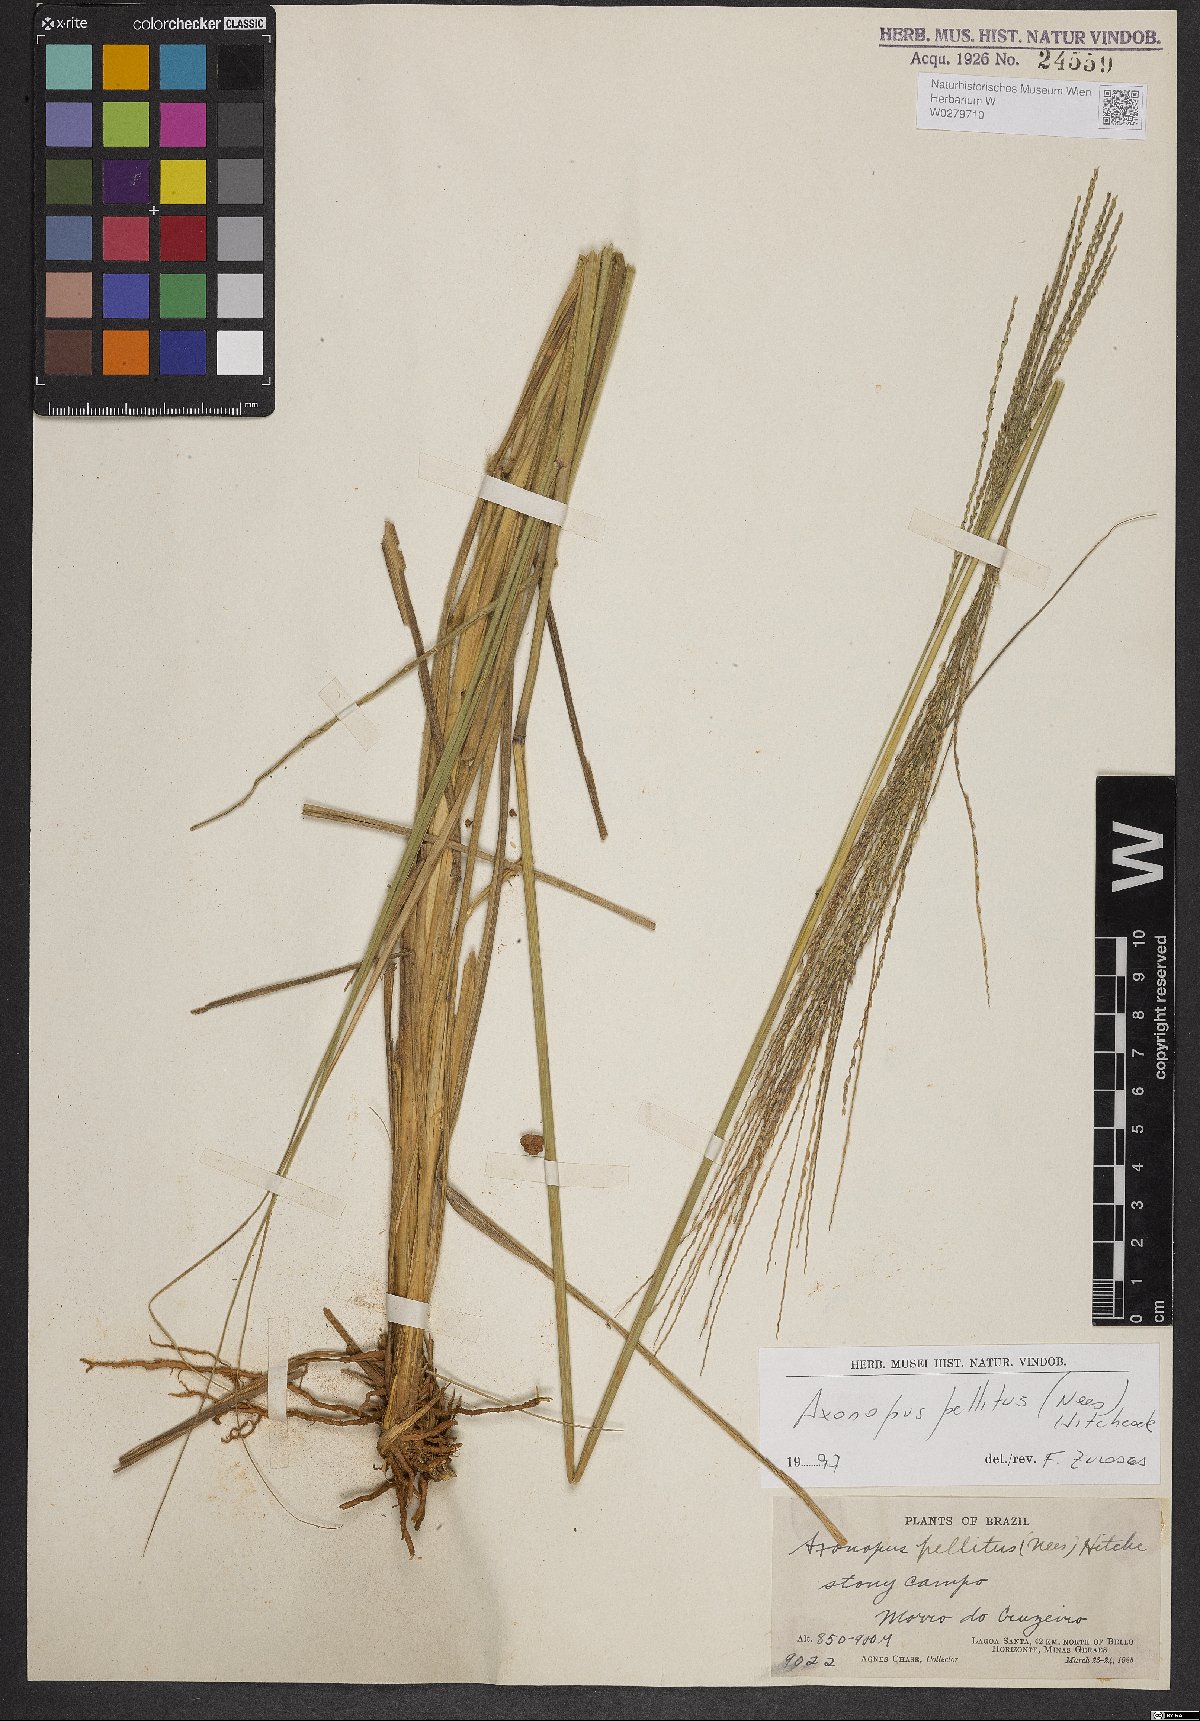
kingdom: Plantae
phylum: Tracheophyta
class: Liliopsida
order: Poales
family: Poaceae
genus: Axonopus
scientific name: Axonopus siccus
